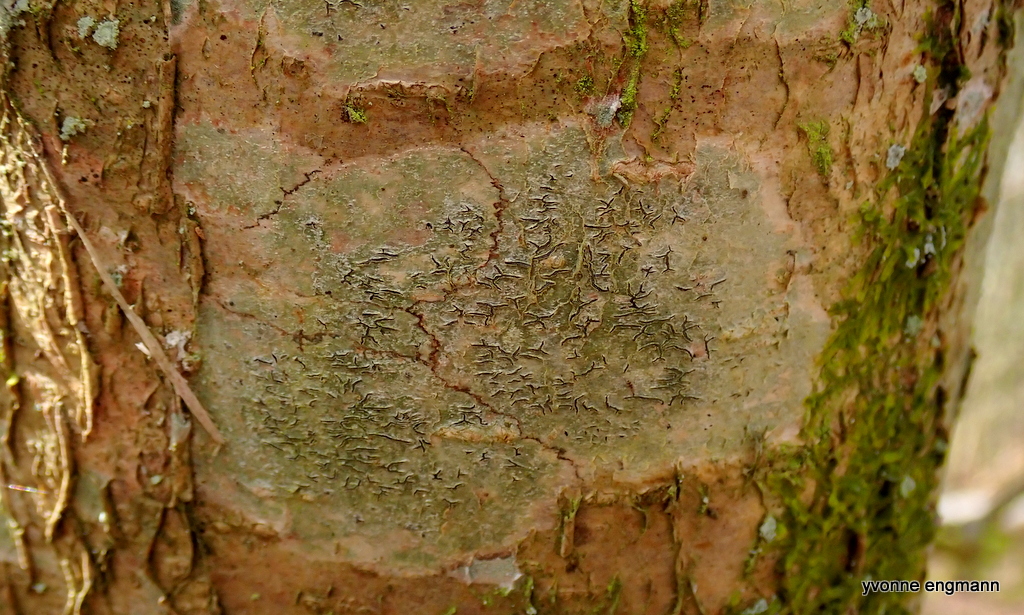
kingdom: Fungi
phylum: Ascomycota
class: Lecanoromycetes
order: Ostropales
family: Graphidaceae
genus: Graphis
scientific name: Graphis scripta
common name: almindelig skriftlav
